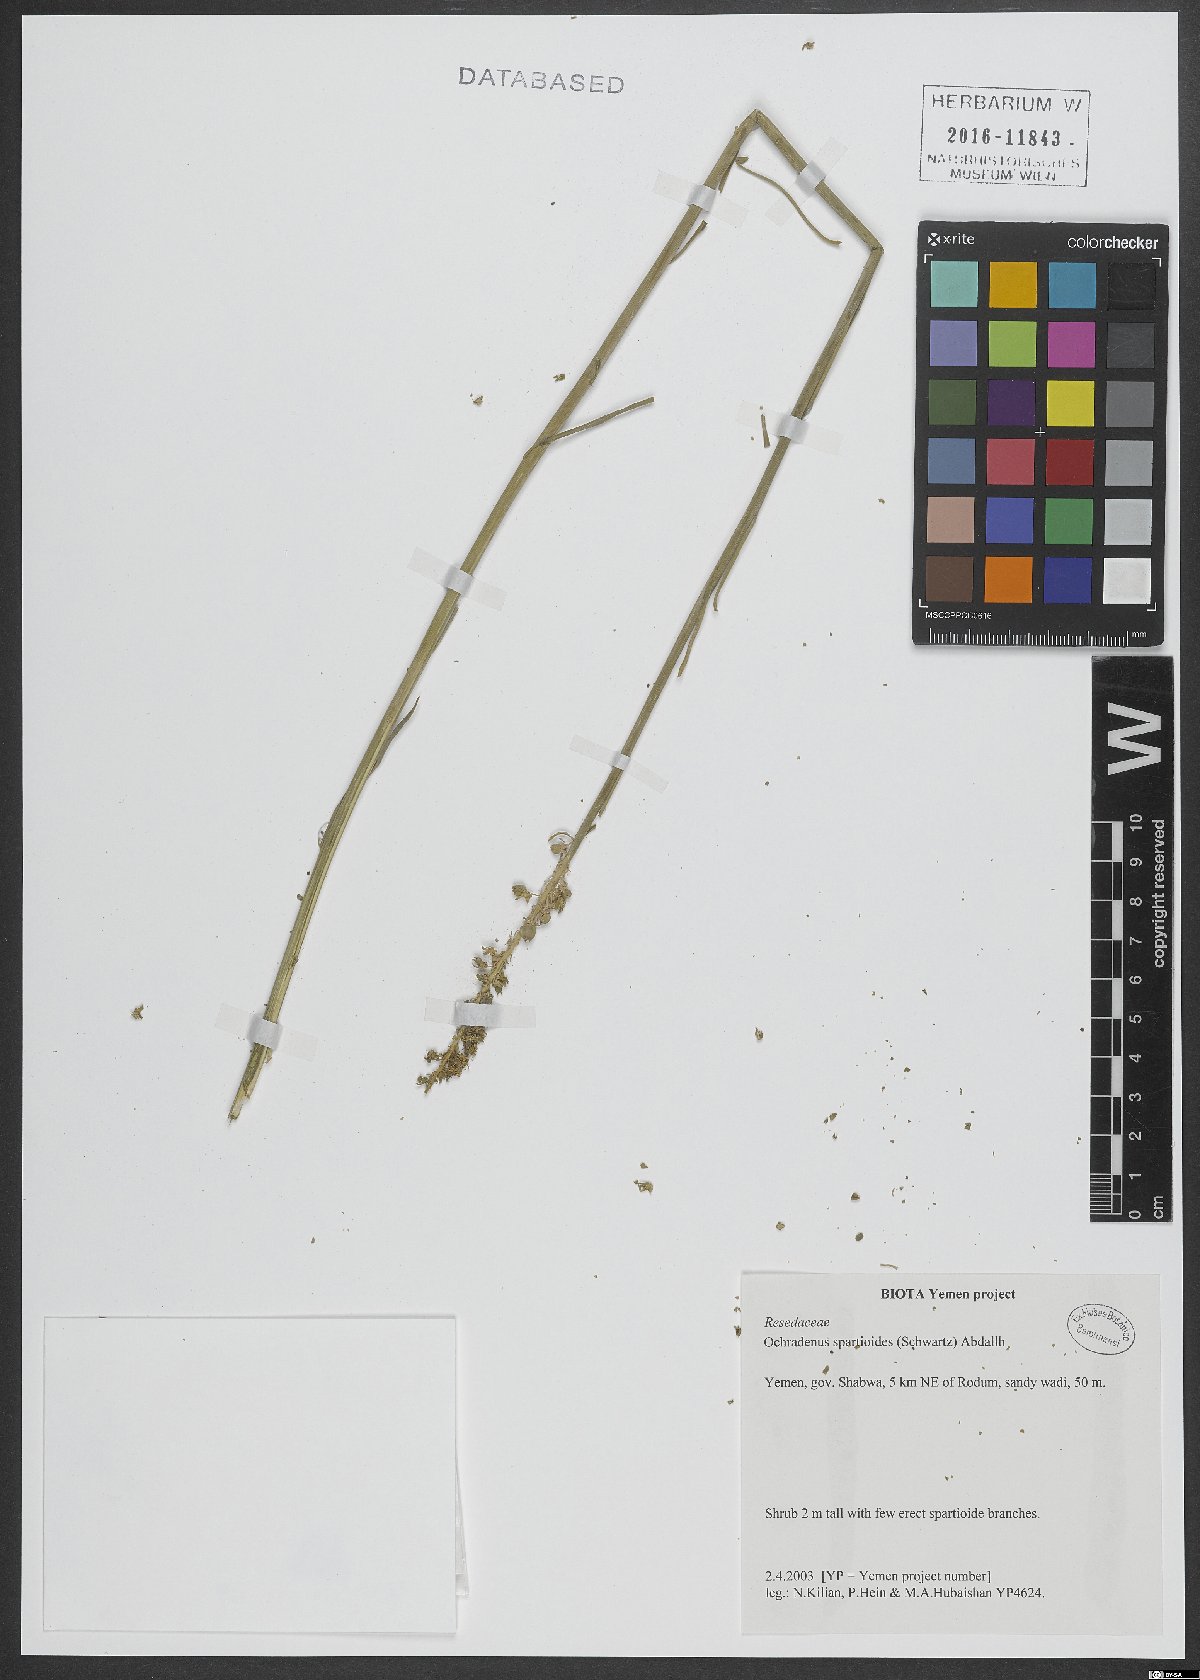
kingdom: Plantae
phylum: Tracheophyta
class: Magnoliopsida
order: Brassicales
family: Resedaceae
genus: Ochradenus
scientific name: Ochradenus spartioides
